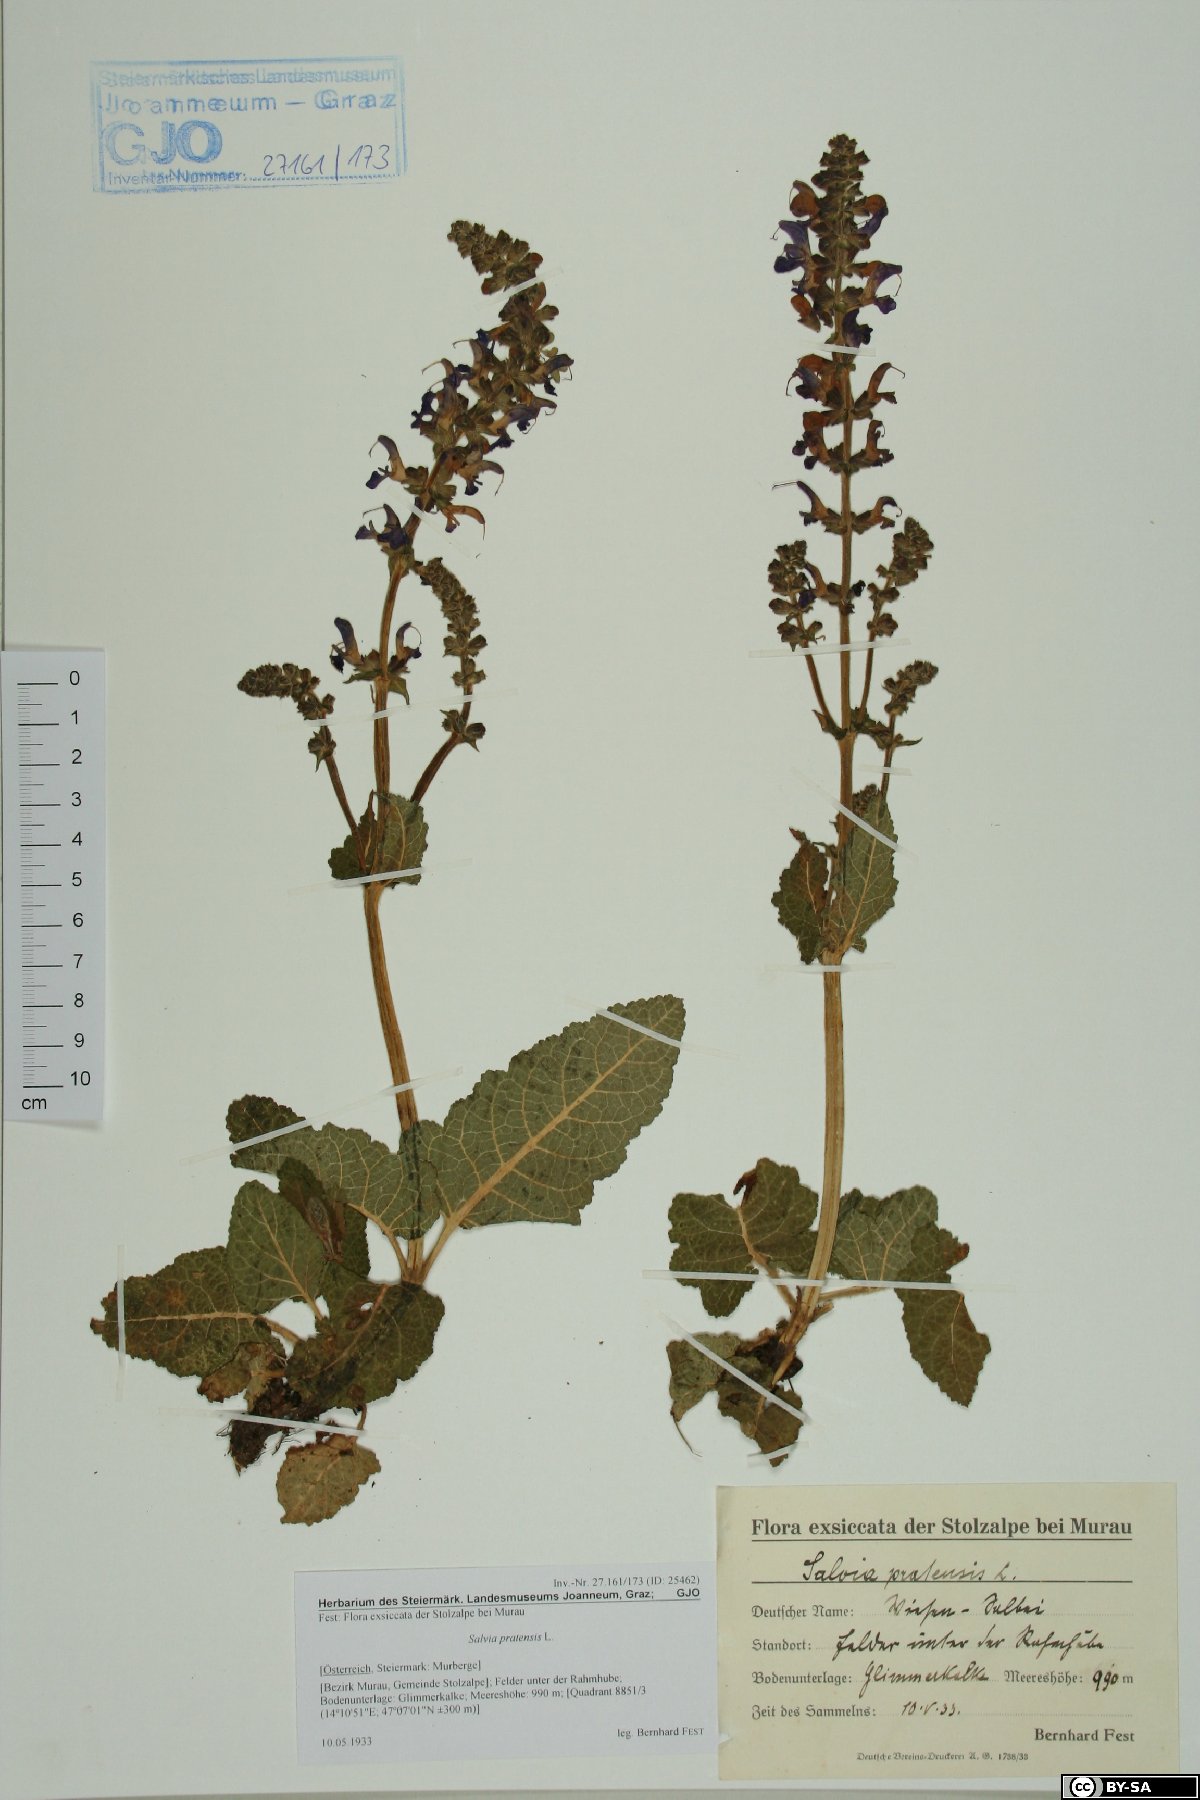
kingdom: Plantae
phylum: Tracheophyta
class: Magnoliopsida
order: Lamiales
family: Lamiaceae
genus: Salvia
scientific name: Salvia pratensis
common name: Meadow sage
